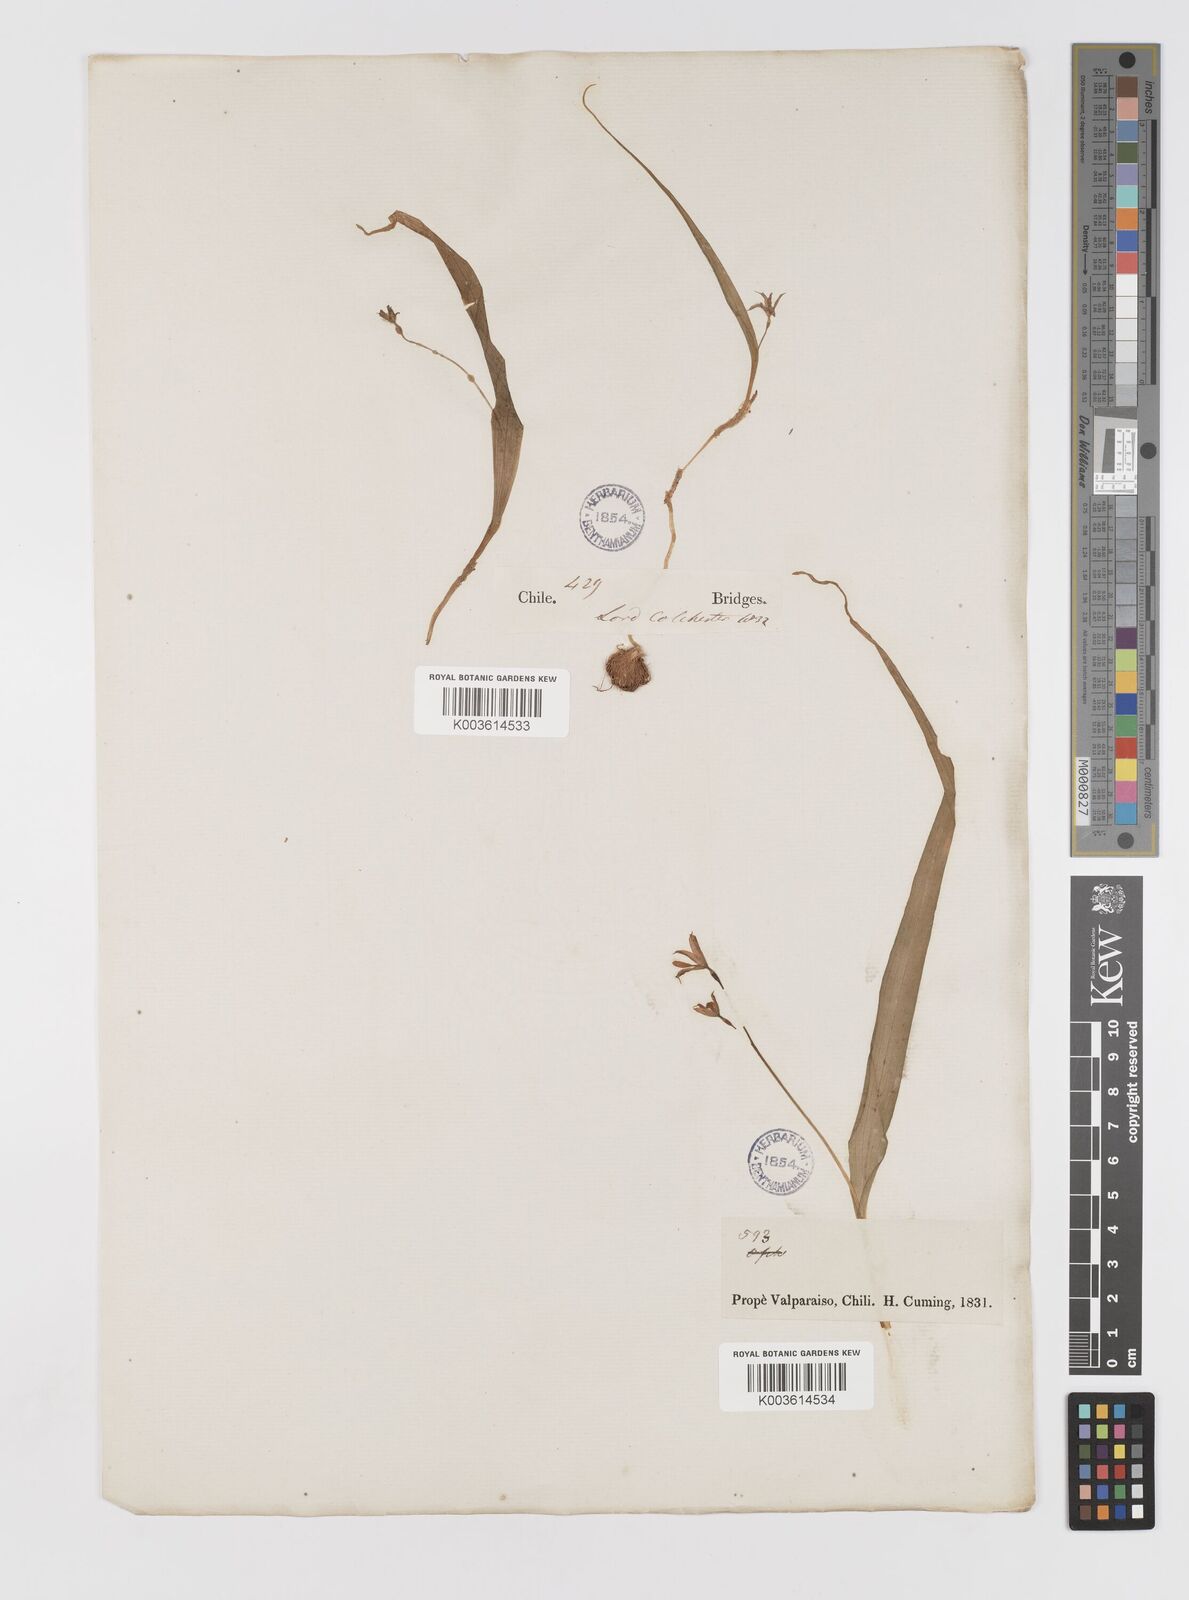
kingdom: Plantae
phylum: Tracheophyta
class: Liliopsida
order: Asparagales
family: Tecophilaeaceae
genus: Tecophilaea
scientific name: Tecophilaea violiflora
